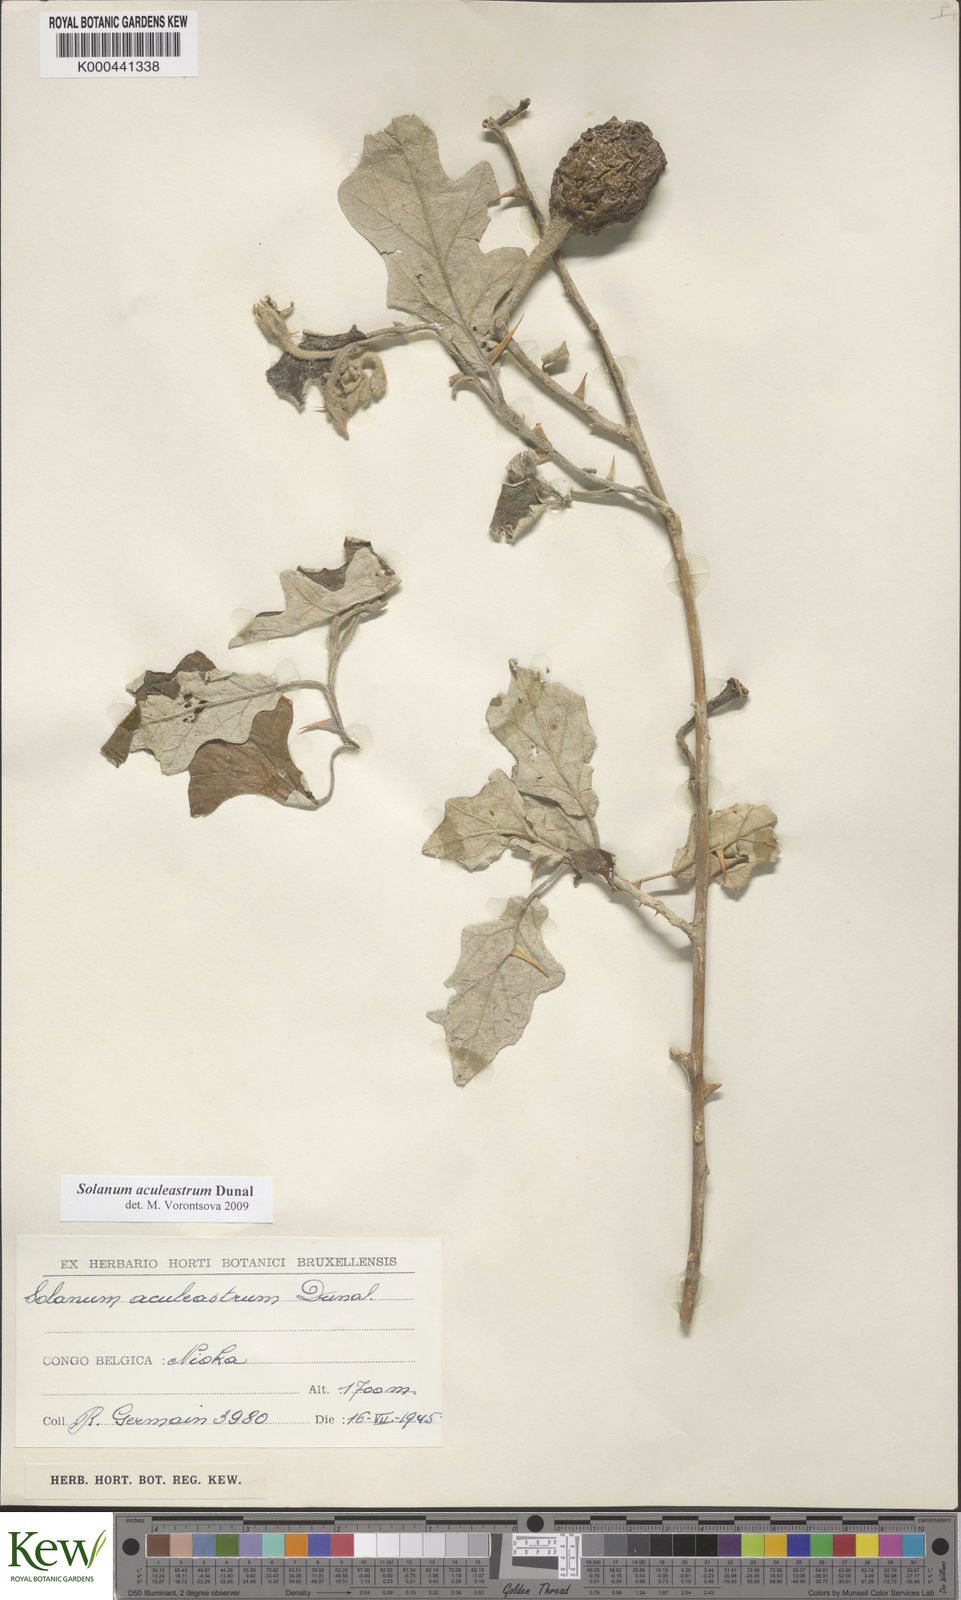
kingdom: Plantae
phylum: Tracheophyta
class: Magnoliopsida
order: Solanales
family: Solanaceae
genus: Solanum
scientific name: Solanum aculeastrum
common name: Goat bitter-apple
